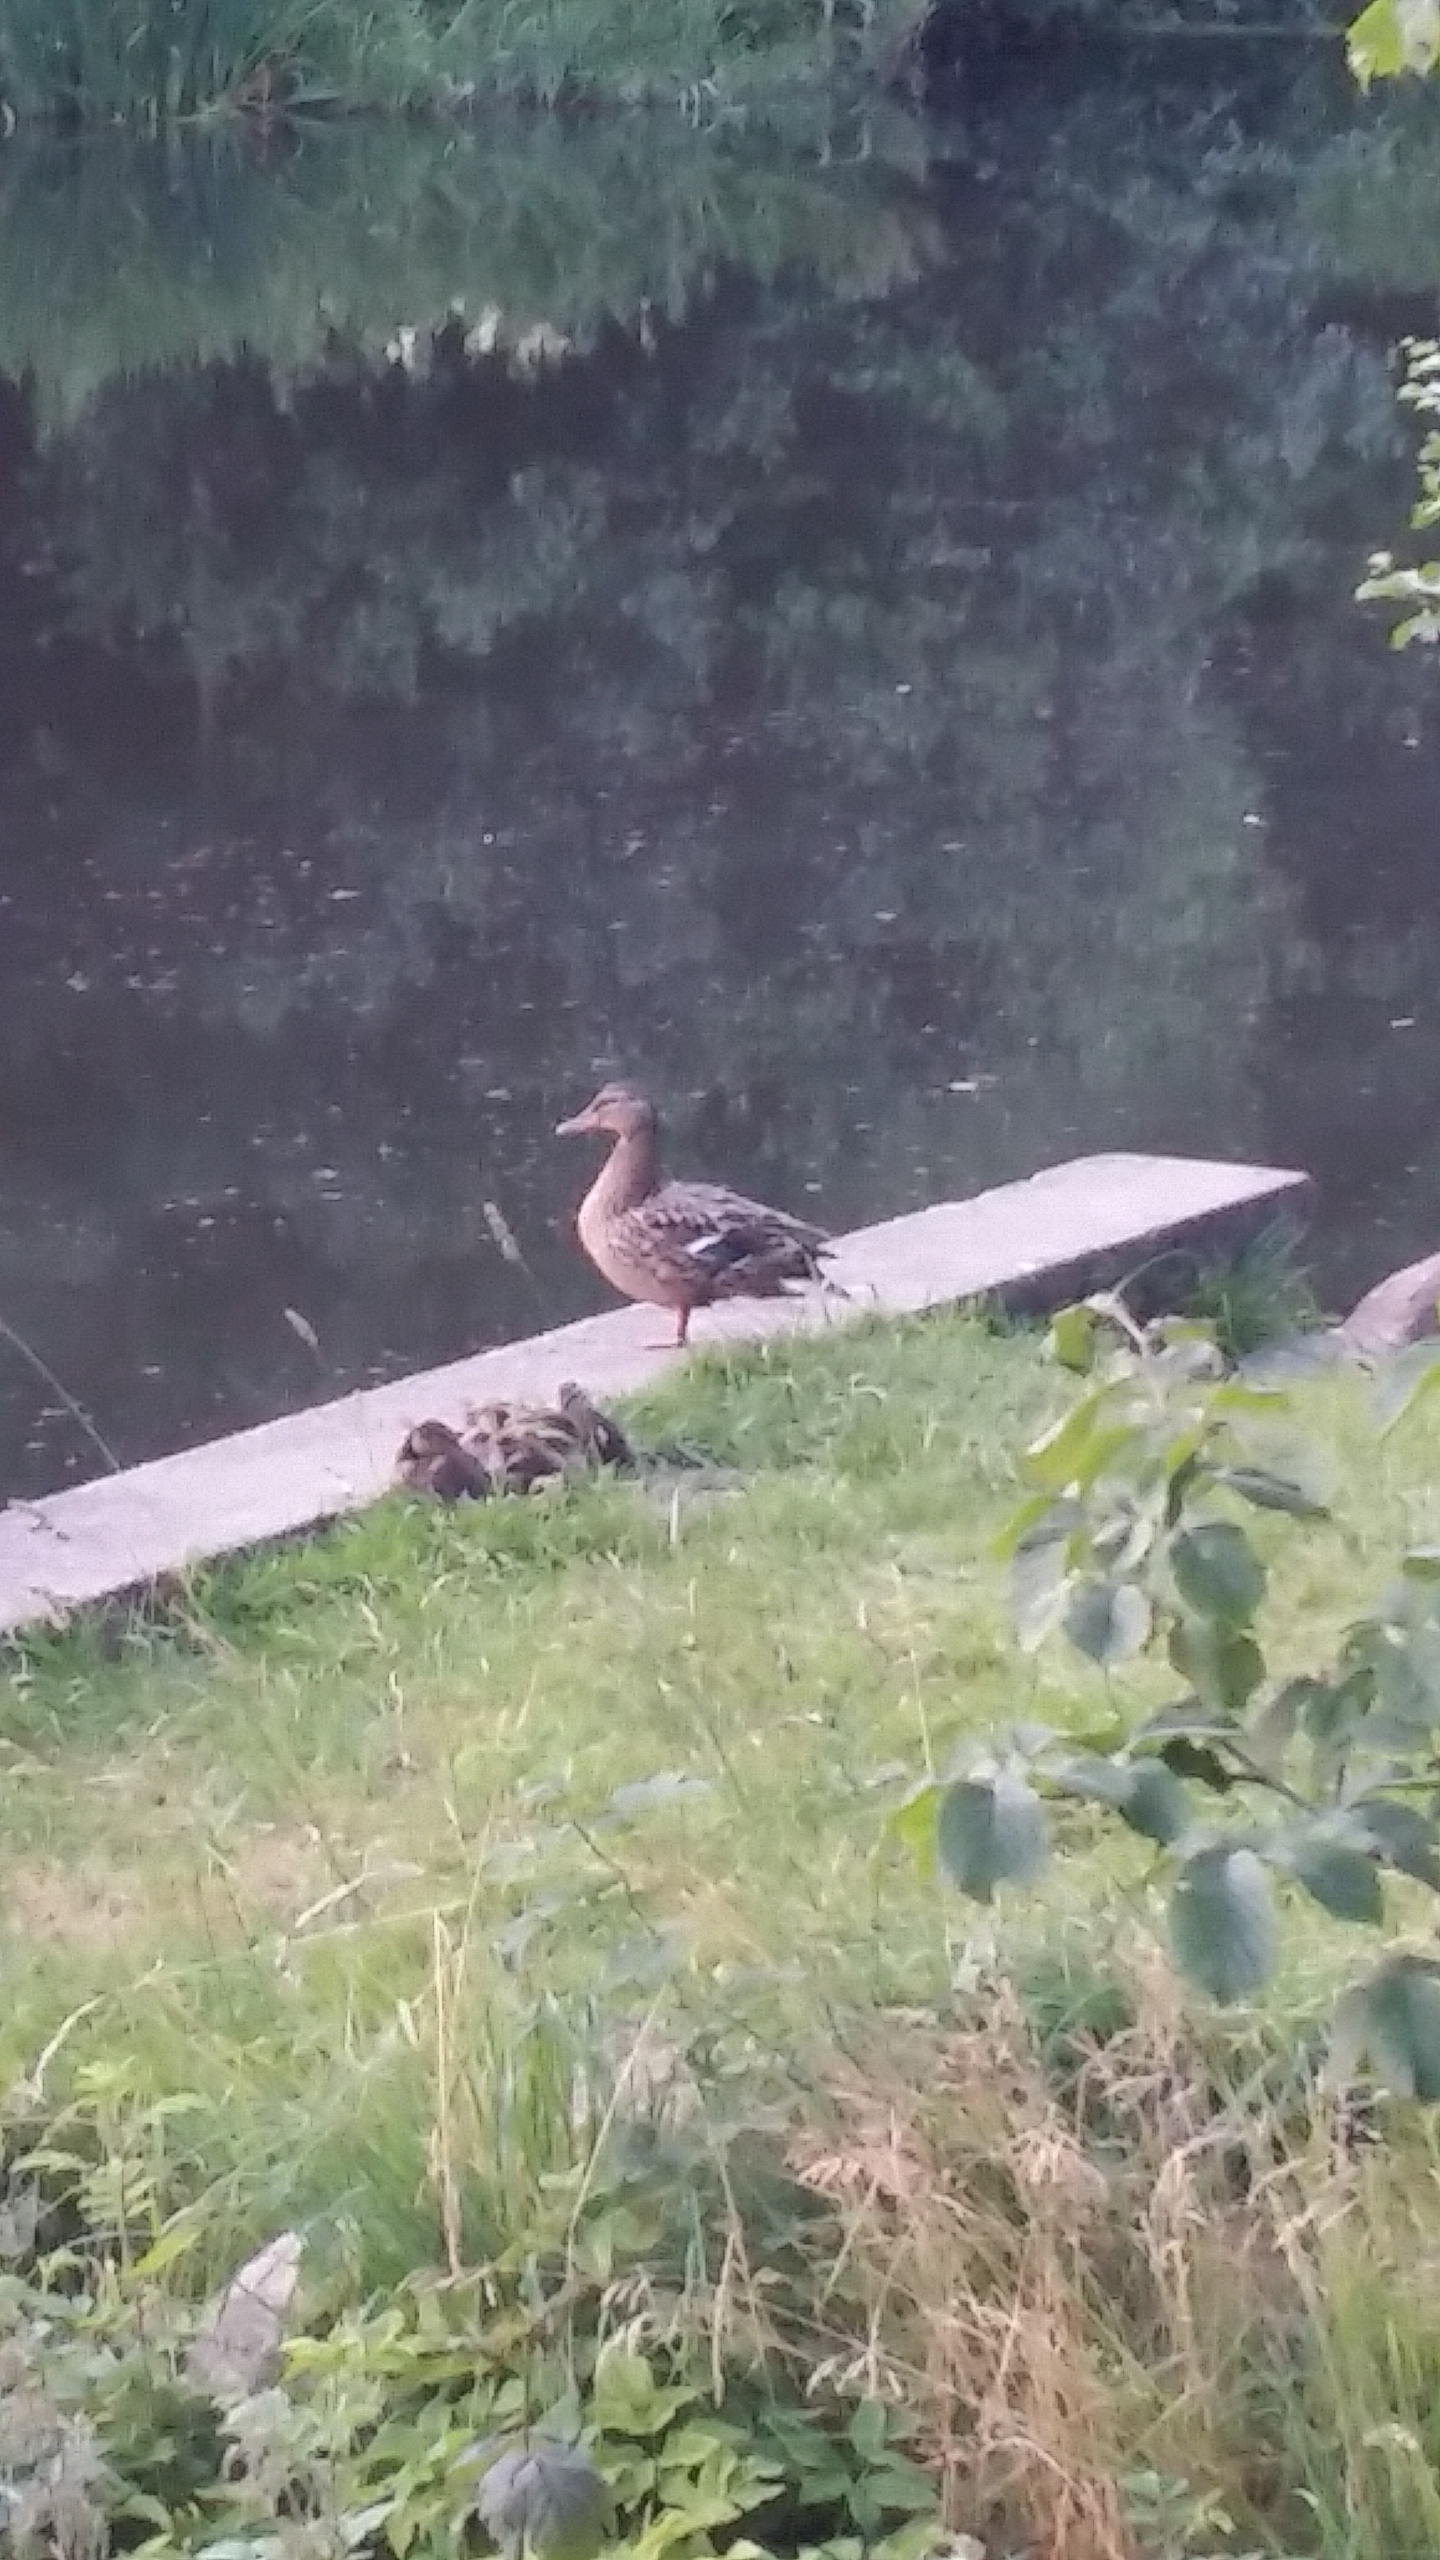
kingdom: Animalia
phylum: Chordata
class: Aves
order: Anseriformes
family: Anatidae
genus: Anas
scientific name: Anas platyrhynchos
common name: Gråand
